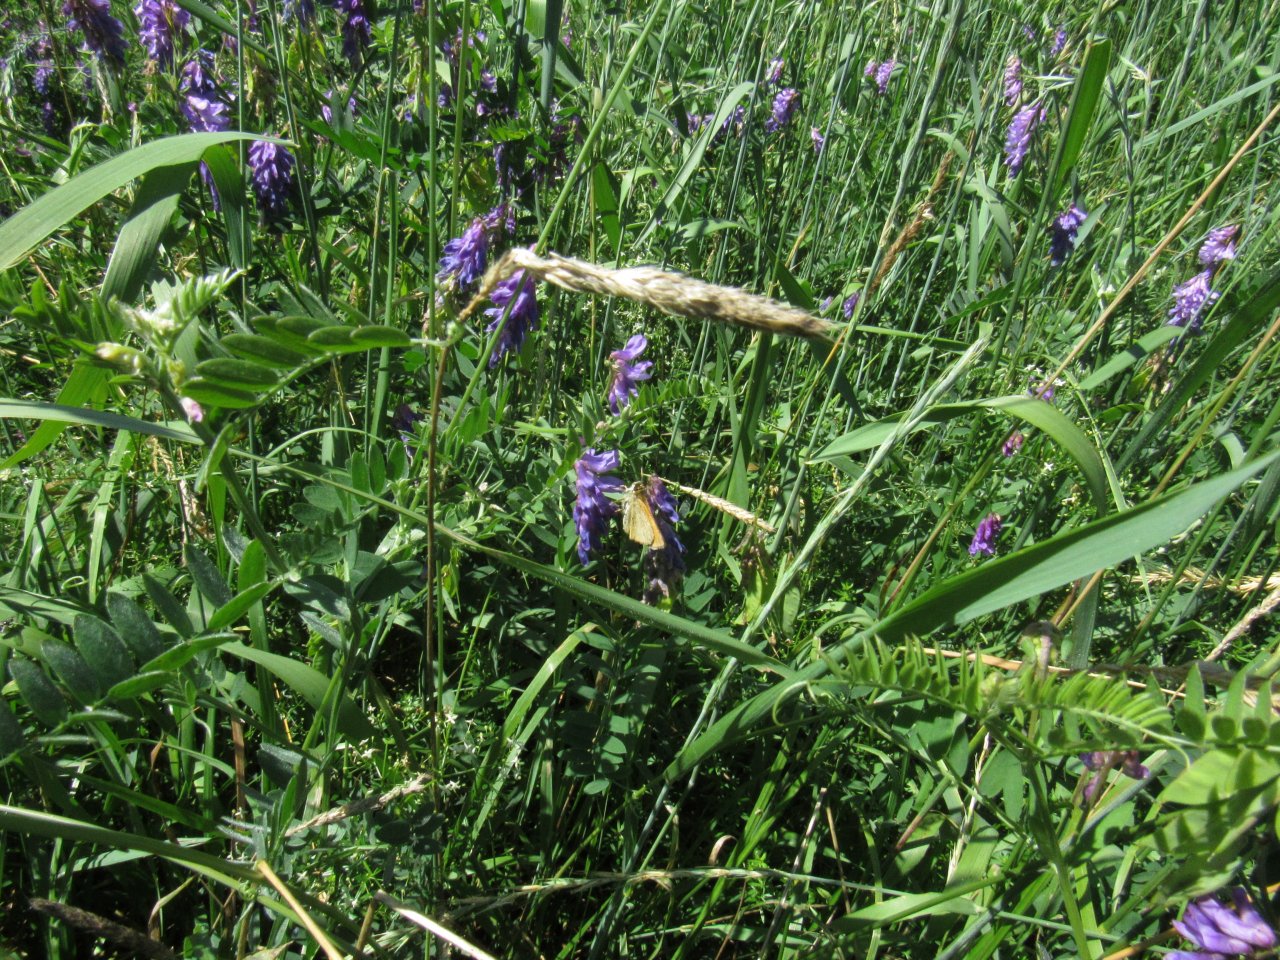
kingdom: Animalia
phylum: Arthropoda
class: Insecta
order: Lepidoptera
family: Hesperiidae
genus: Thymelicus
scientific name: Thymelicus lineola
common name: European Skipper
